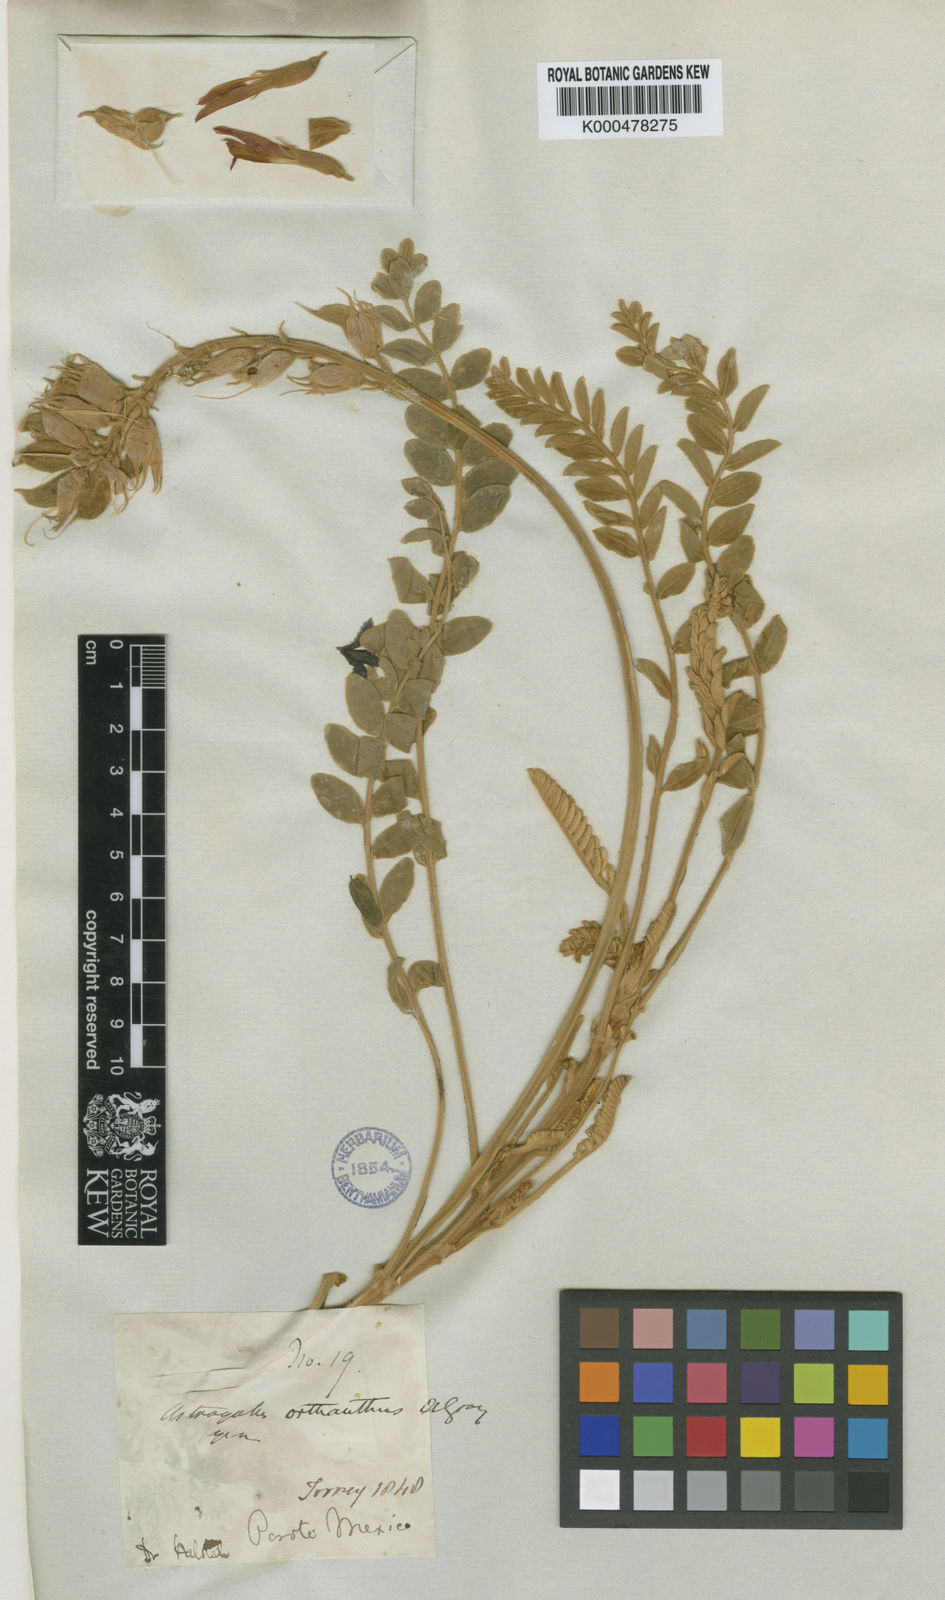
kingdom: Plantae
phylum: Tracheophyta
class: Magnoliopsida
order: Fabales
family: Fabaceae
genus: Astragalus
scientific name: Astragalus helleri
